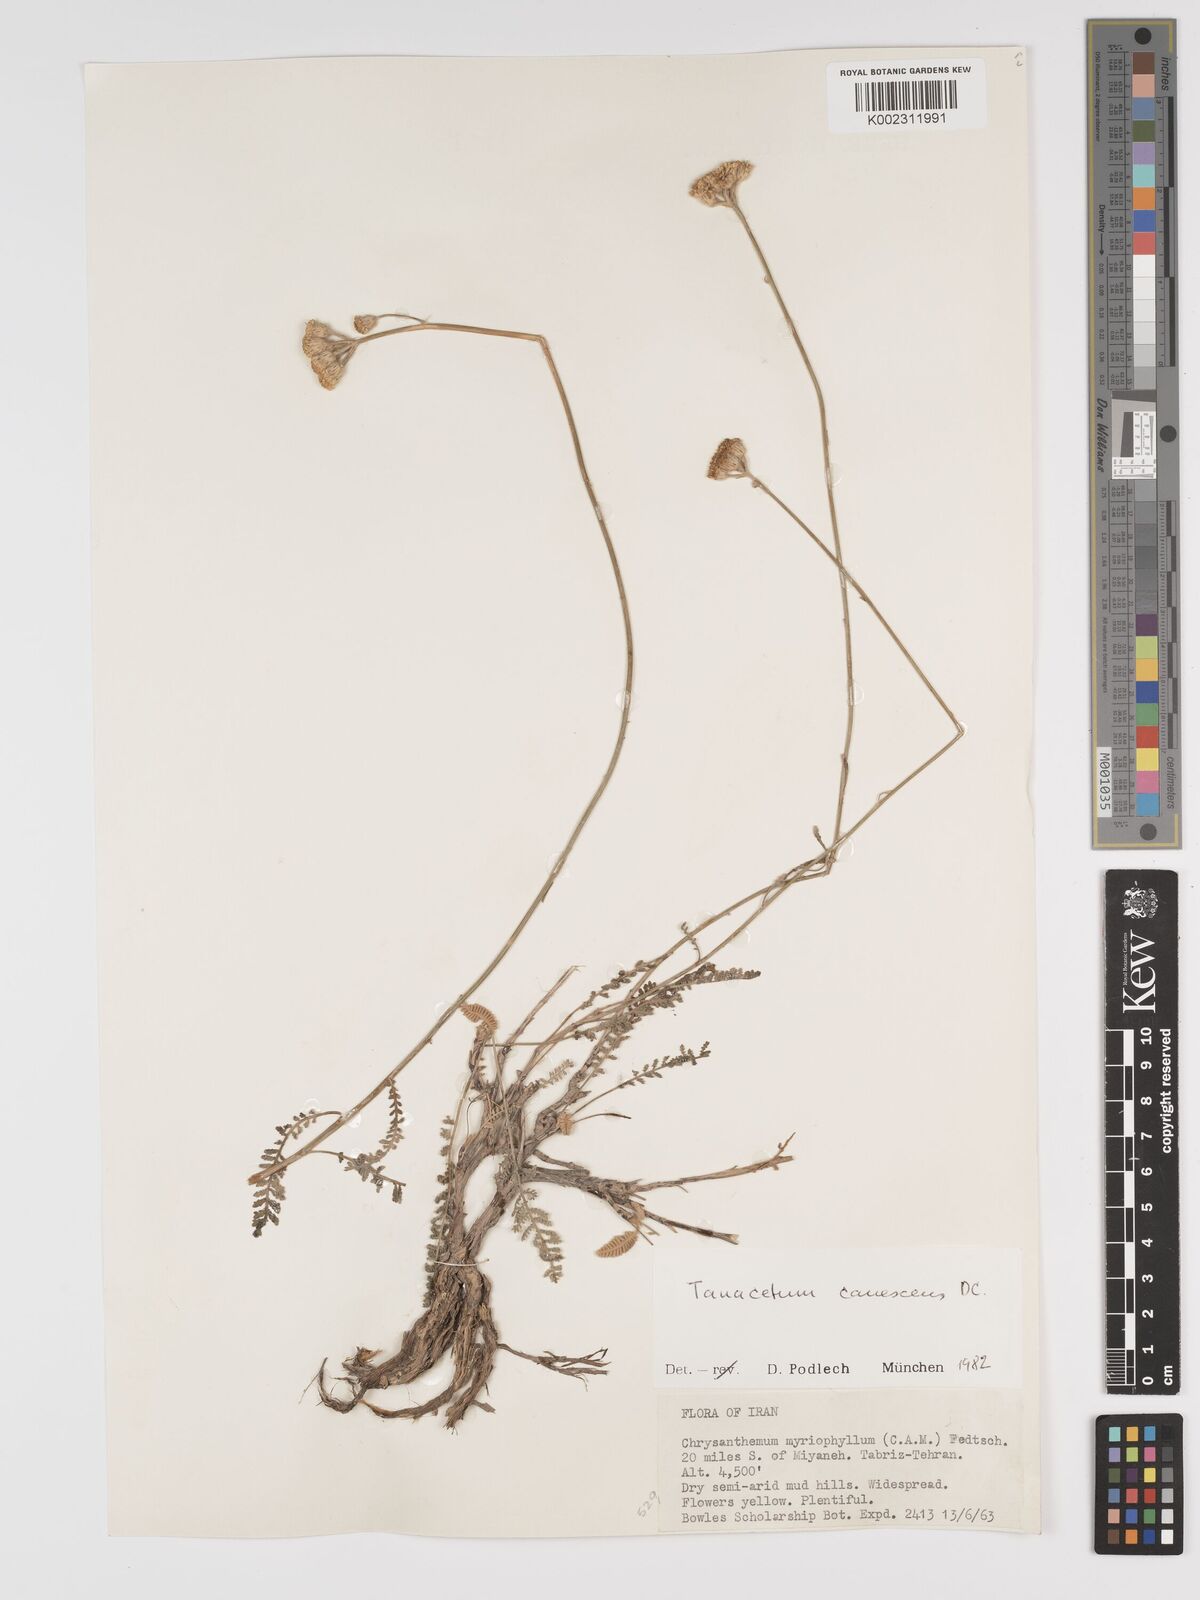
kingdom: Plantae
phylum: Tracheophyta
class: Magnoliopsida
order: Asterales
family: Asteraceae
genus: Tanacetum
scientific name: Tanacetum polycephalum
